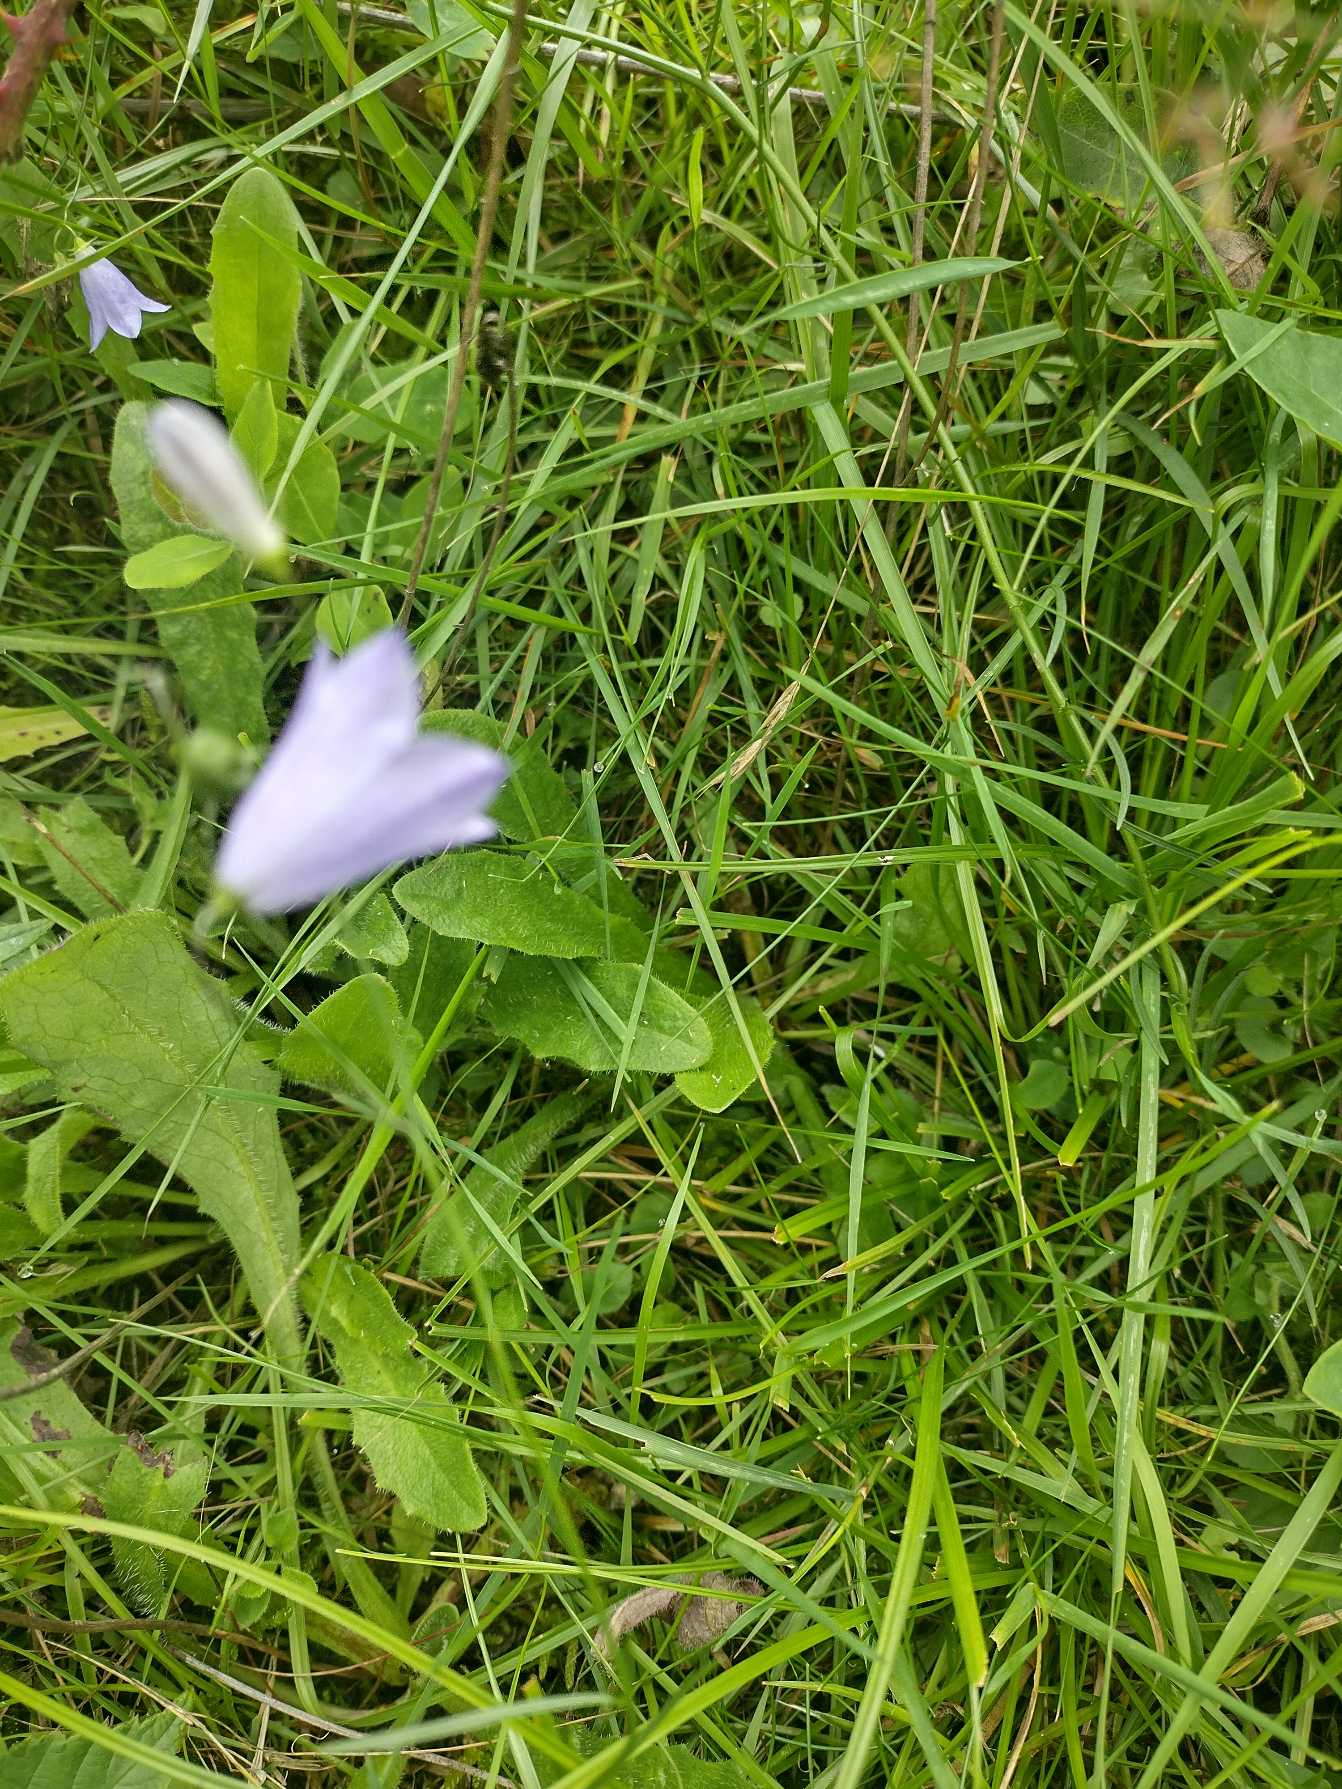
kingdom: Plantae
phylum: Tracheophyta
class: Magnoliopsida
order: Asterales
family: Campanulaceae
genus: Campanula
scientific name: Campanula rotundifolia
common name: Liden klokke
